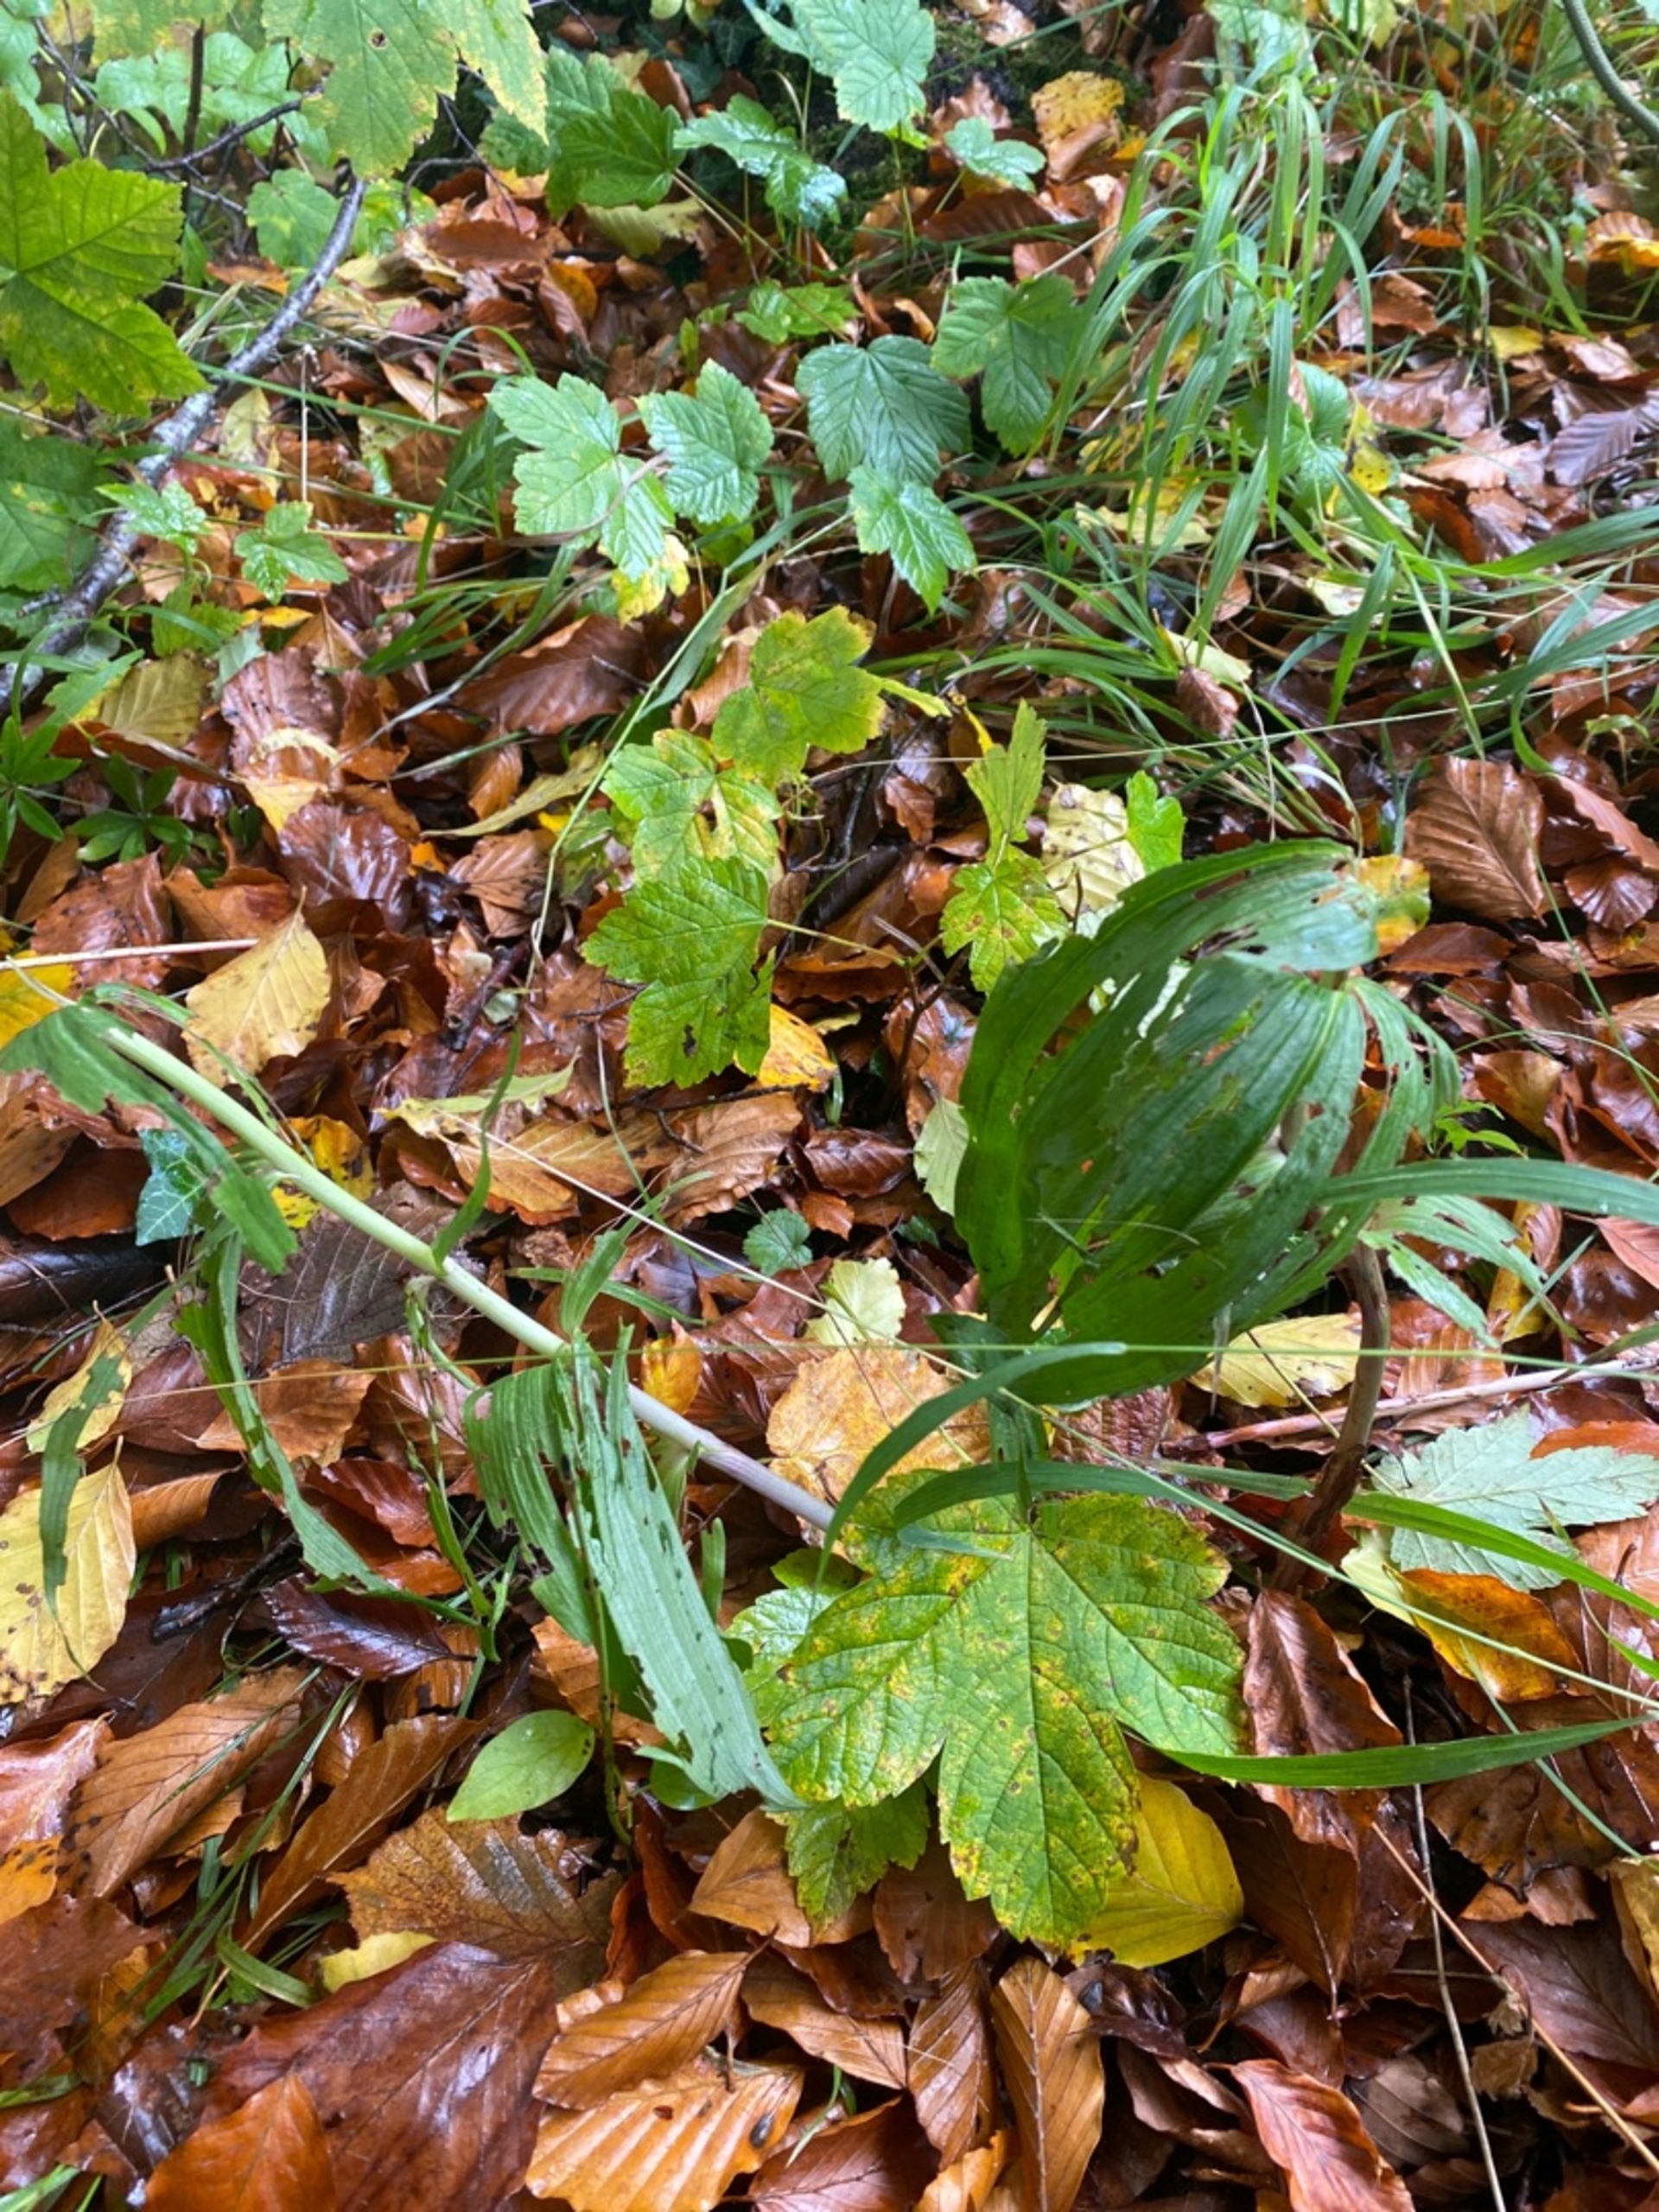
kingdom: Plantae
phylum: Tracheophyta
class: Liliopsida
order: Asparagales
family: Orchidaceae
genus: Epipactis
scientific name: Epipactis helleborine
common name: Skov-hullæbe
